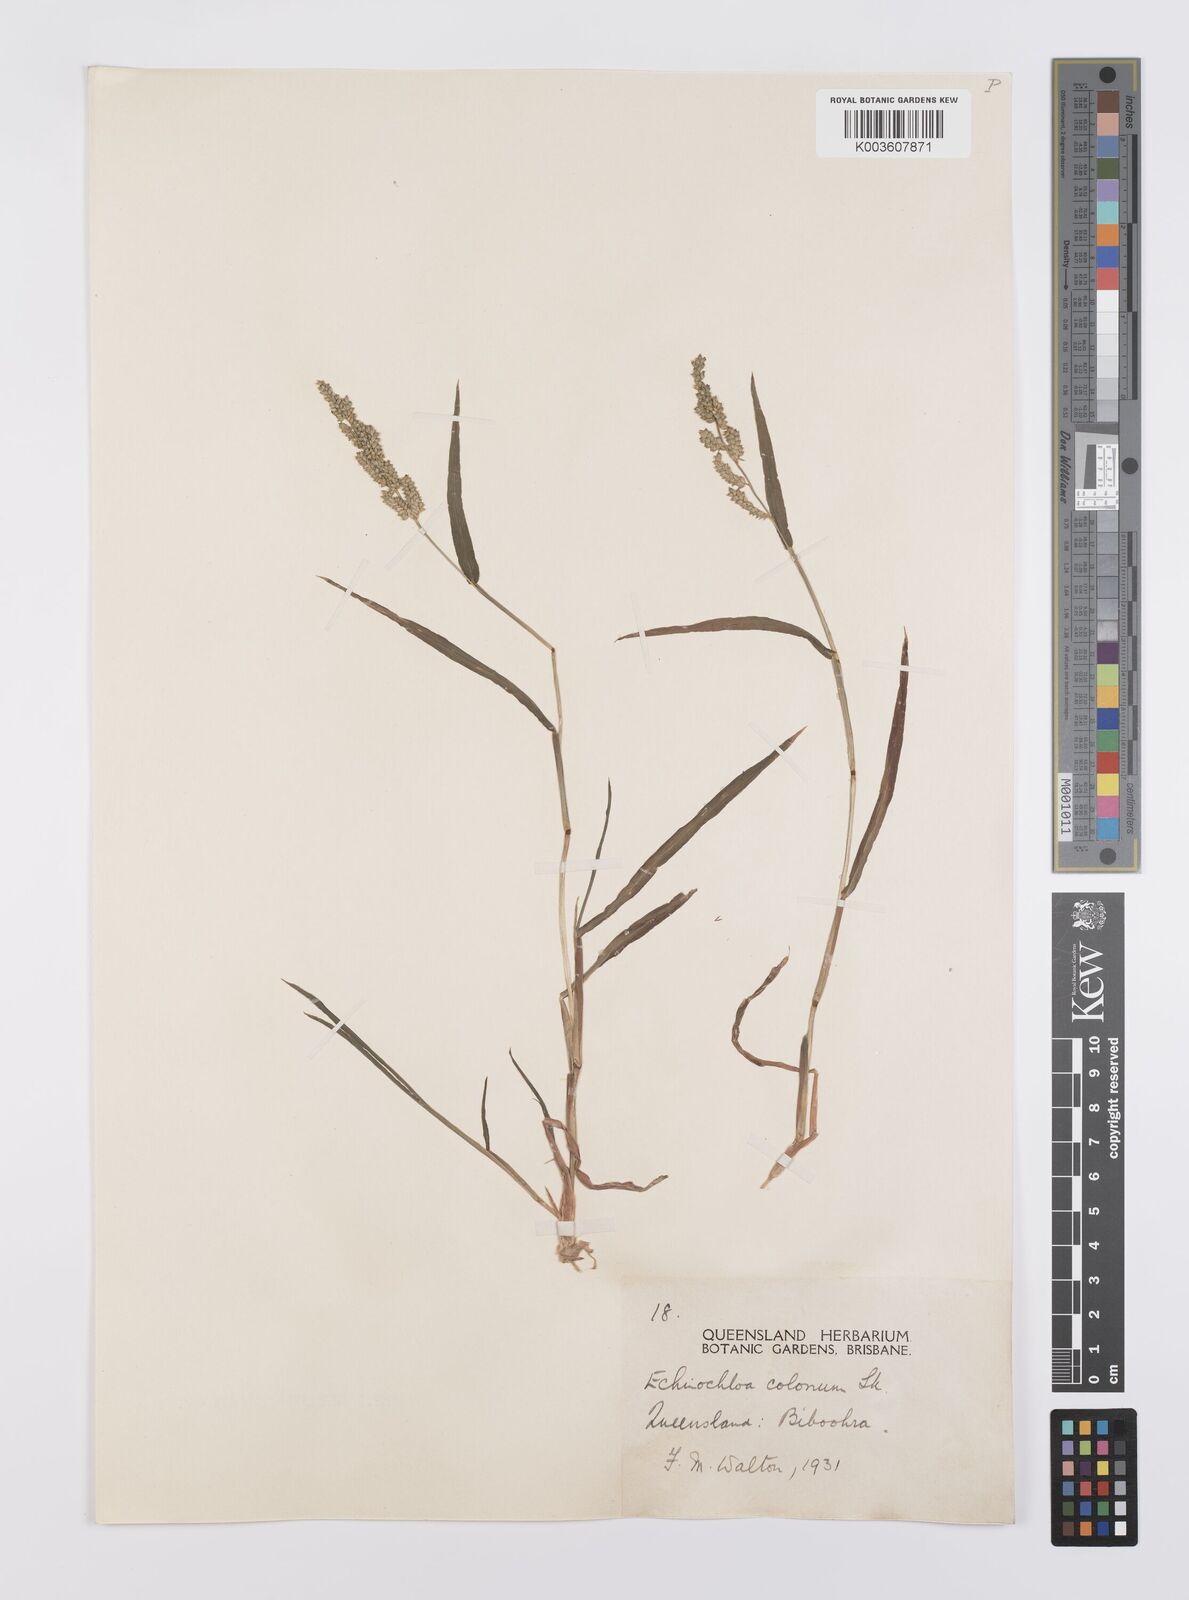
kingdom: Plantae
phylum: Tracheophyta
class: Liliopsida
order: Poales
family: Poaceae
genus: Echinochloa
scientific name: Echinochloa colonum
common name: Jungle rice
